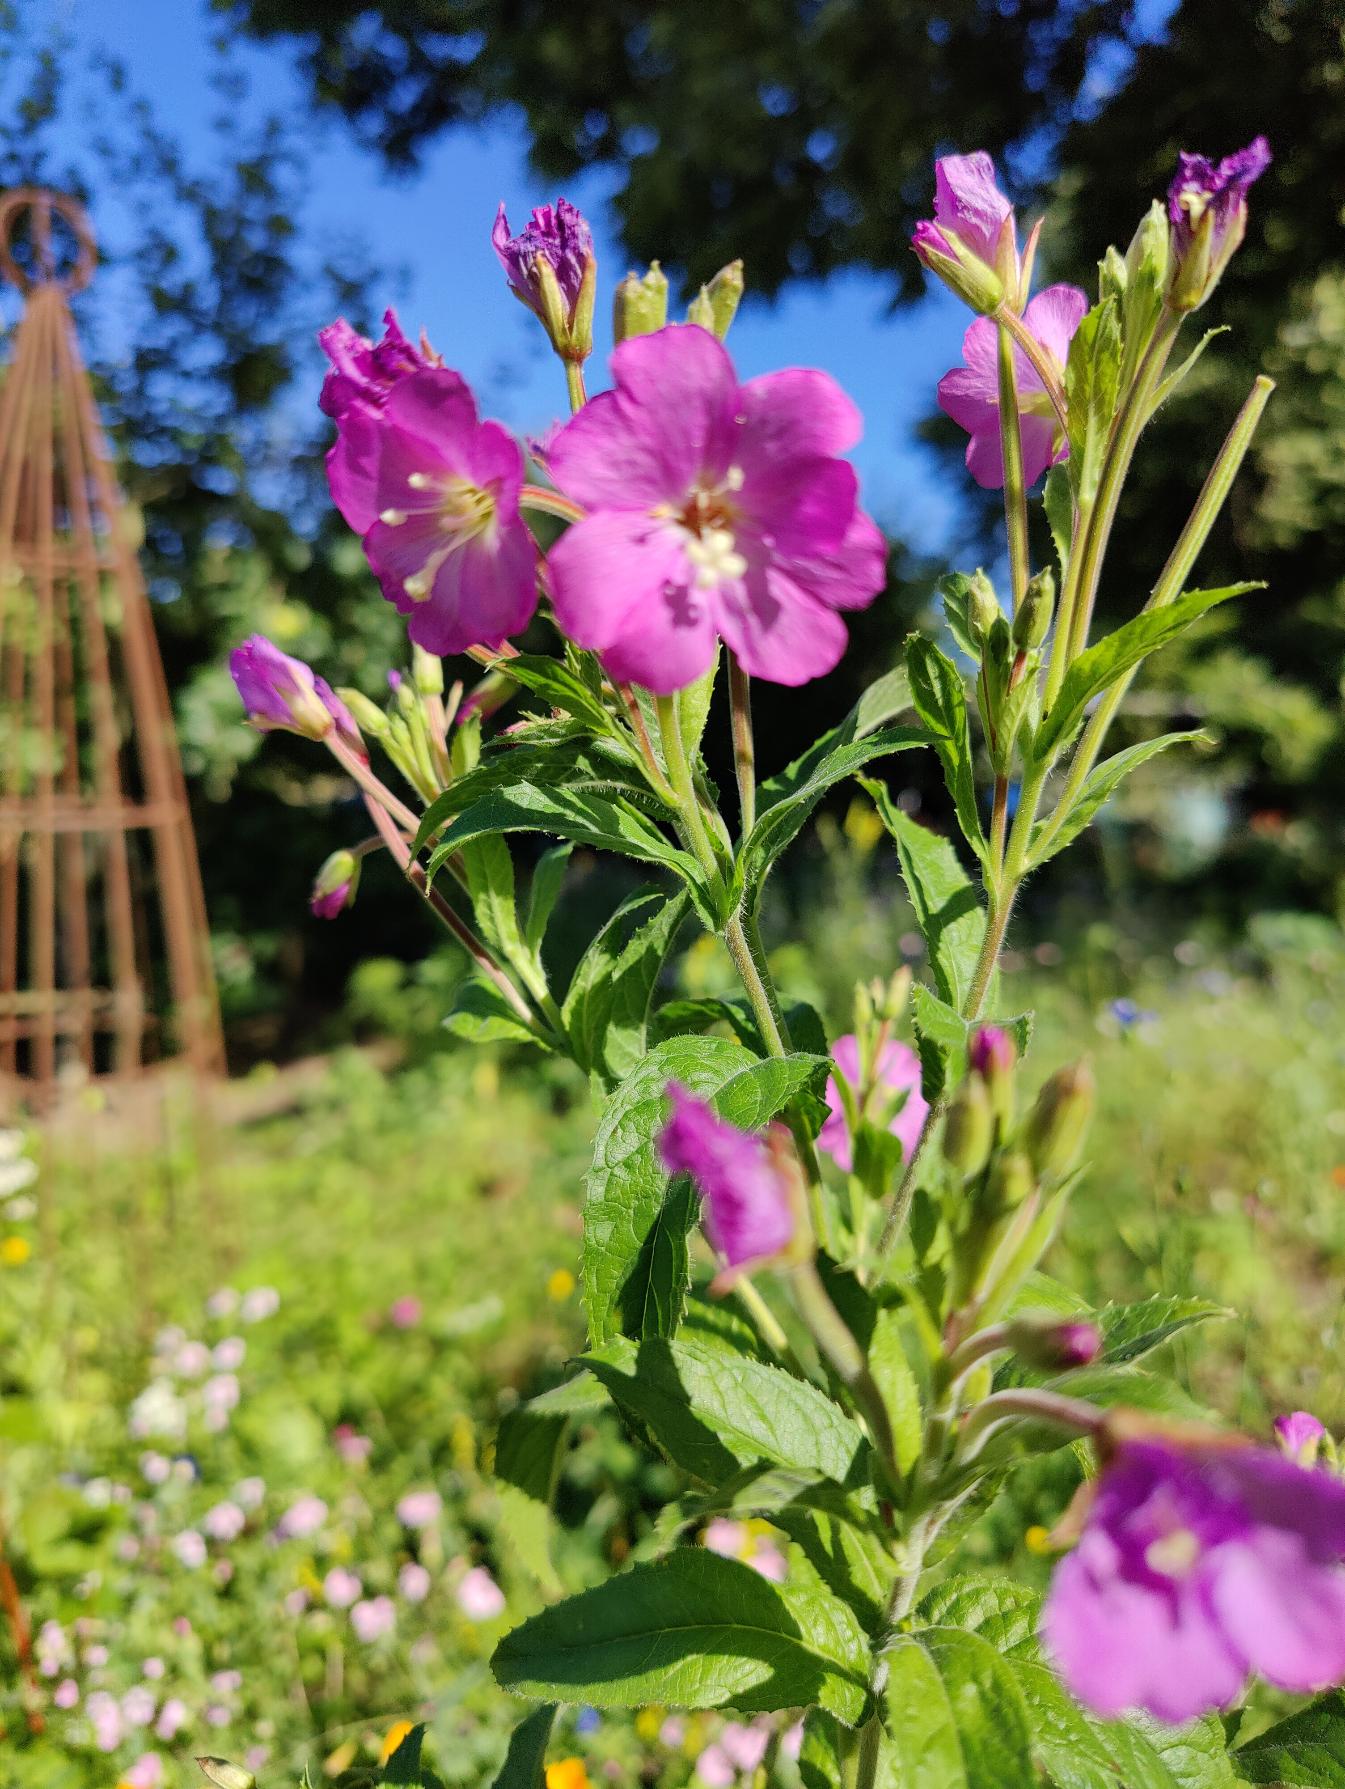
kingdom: Plantae
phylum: Tracheophyta
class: Magnoliopsida
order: Myrtales
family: Onagraceae
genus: Epilobium
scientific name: Epilobium hirsutum
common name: Lådden dueurt
